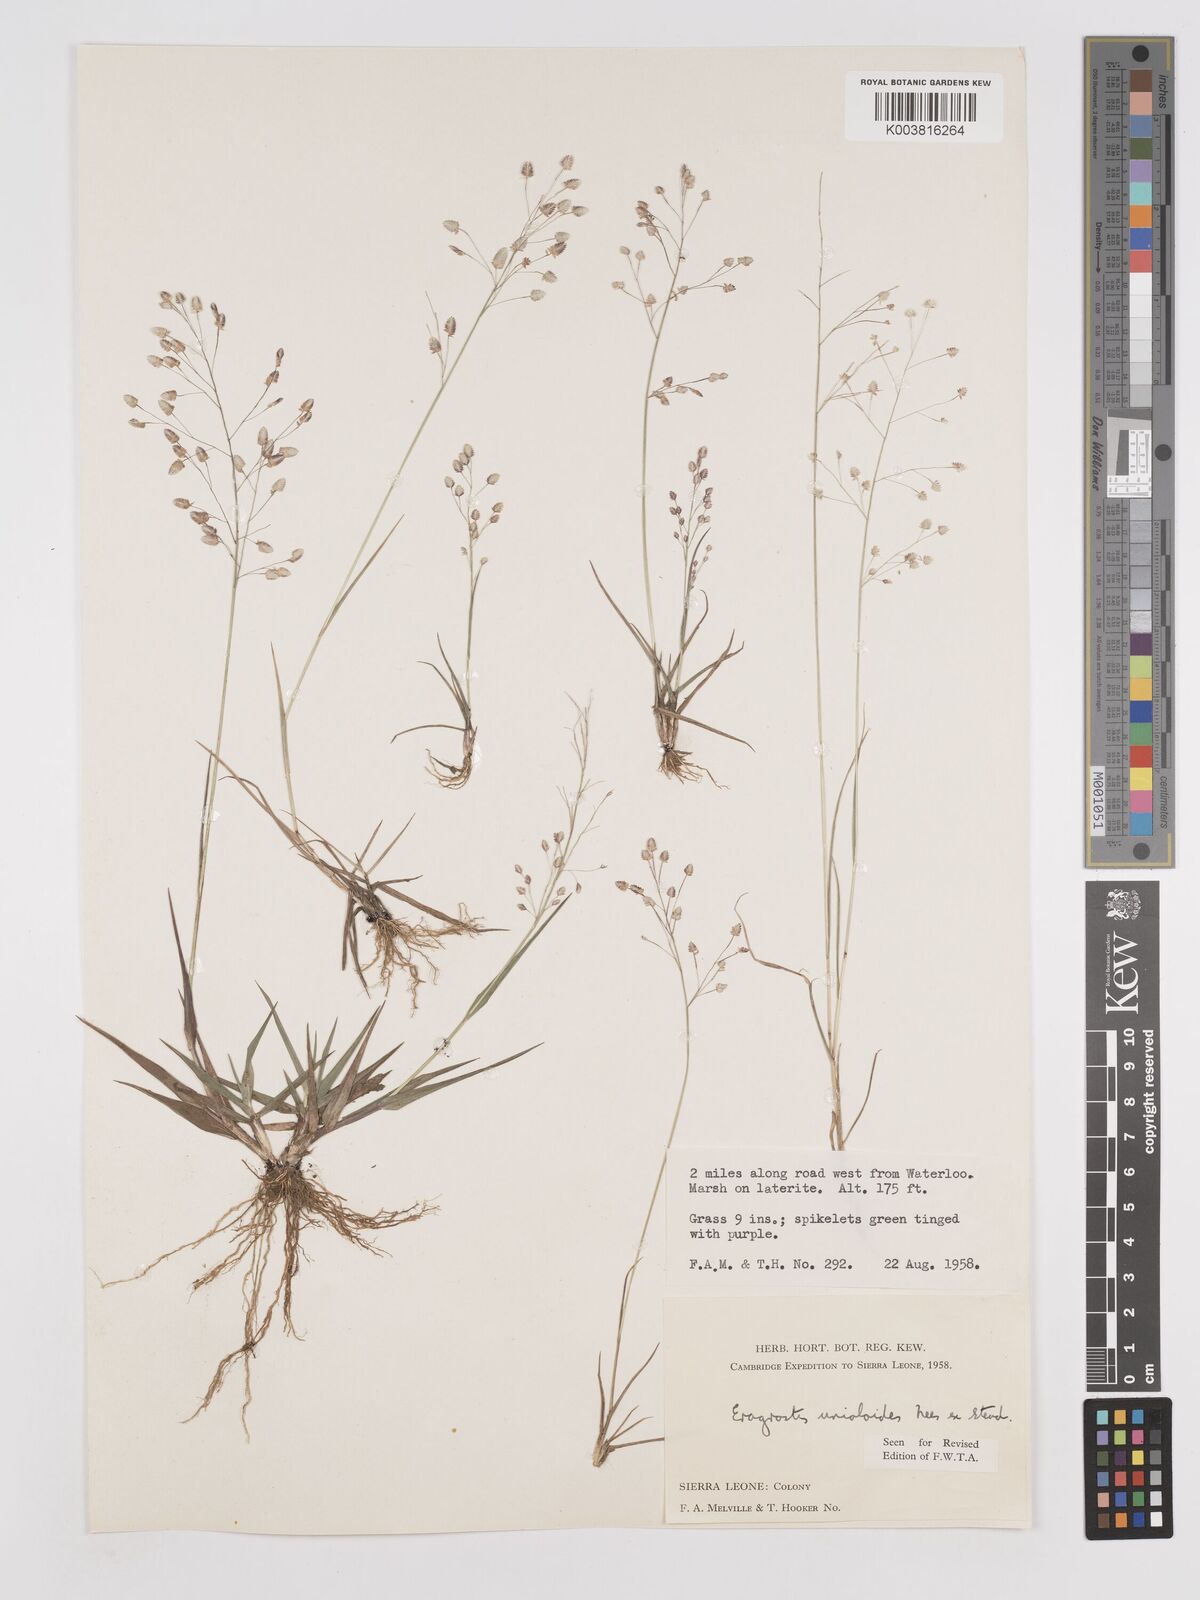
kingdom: Plantae
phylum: Tracheophyta
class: Liliopsida
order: Poales
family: Poaceae
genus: Eragrostis
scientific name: Eragrostis unioloides
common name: Chinese lovegrass
